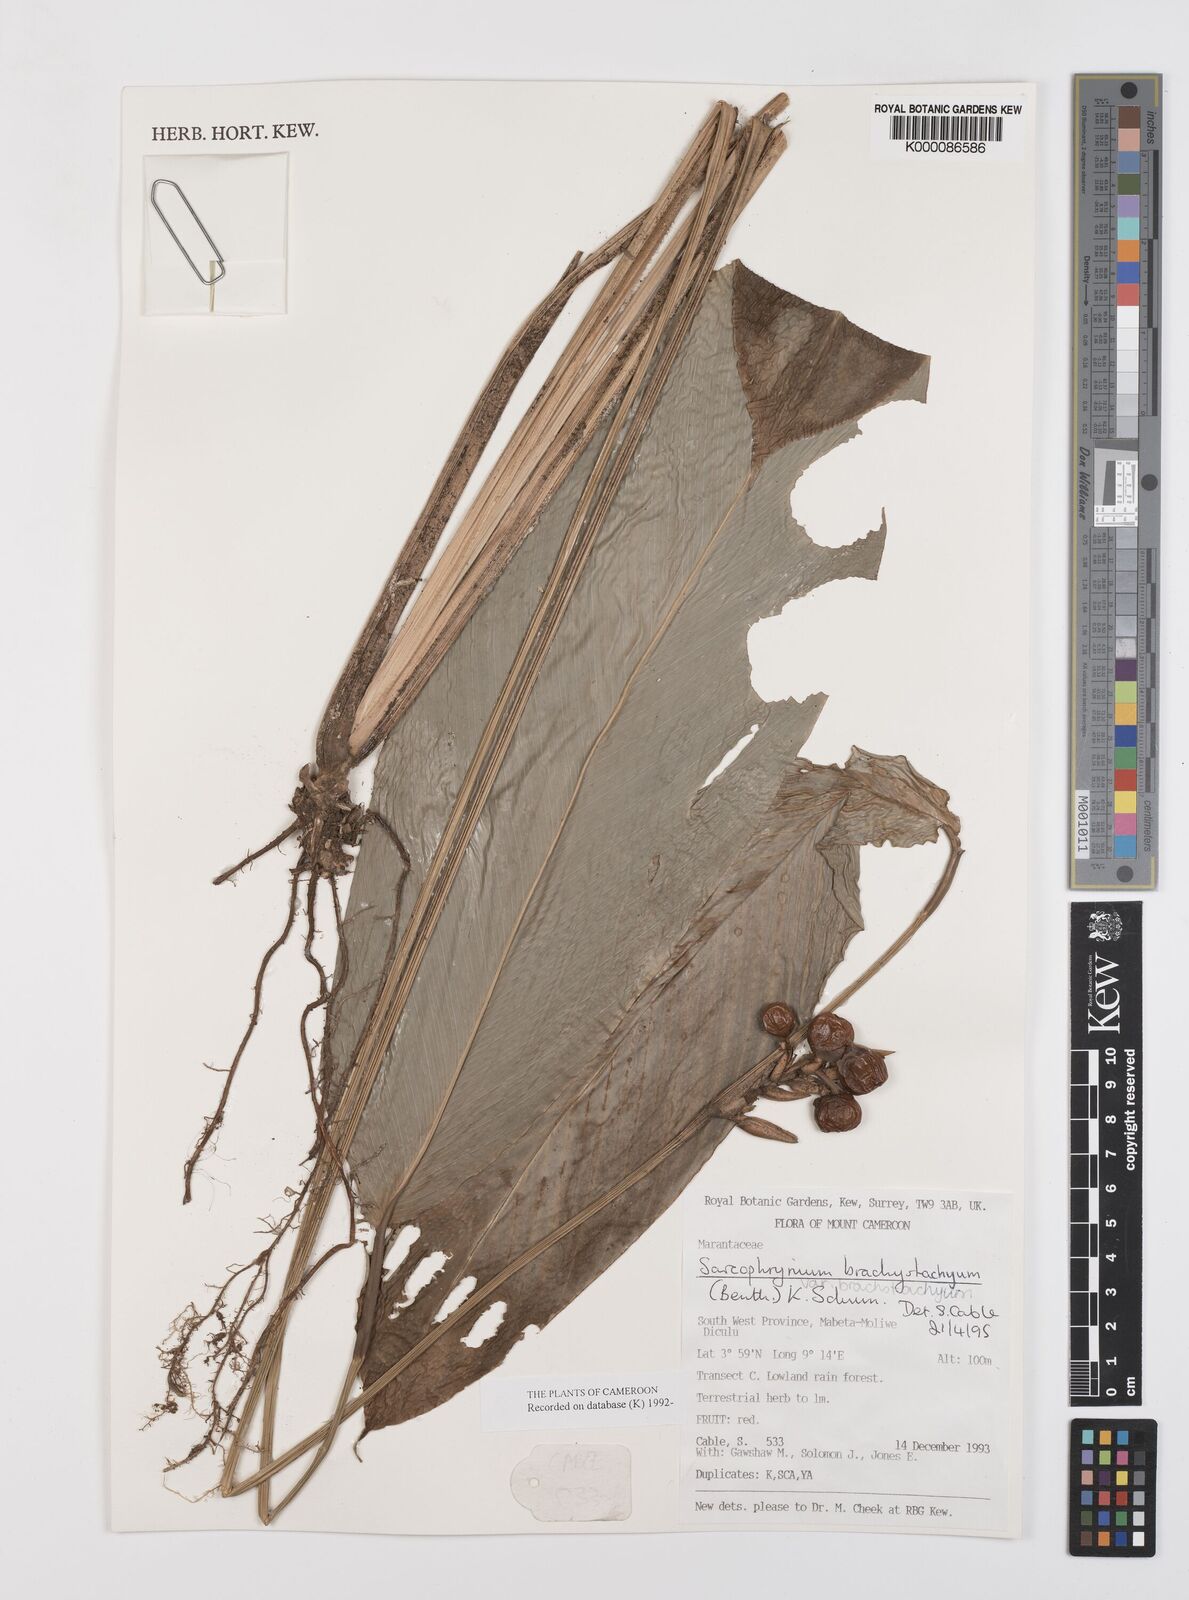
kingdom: Plantae
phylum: Tracheophyta
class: Liliopsida
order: Zingiberales
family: Marantaceae
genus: Sarcophrynium
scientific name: Sarcophrynium
